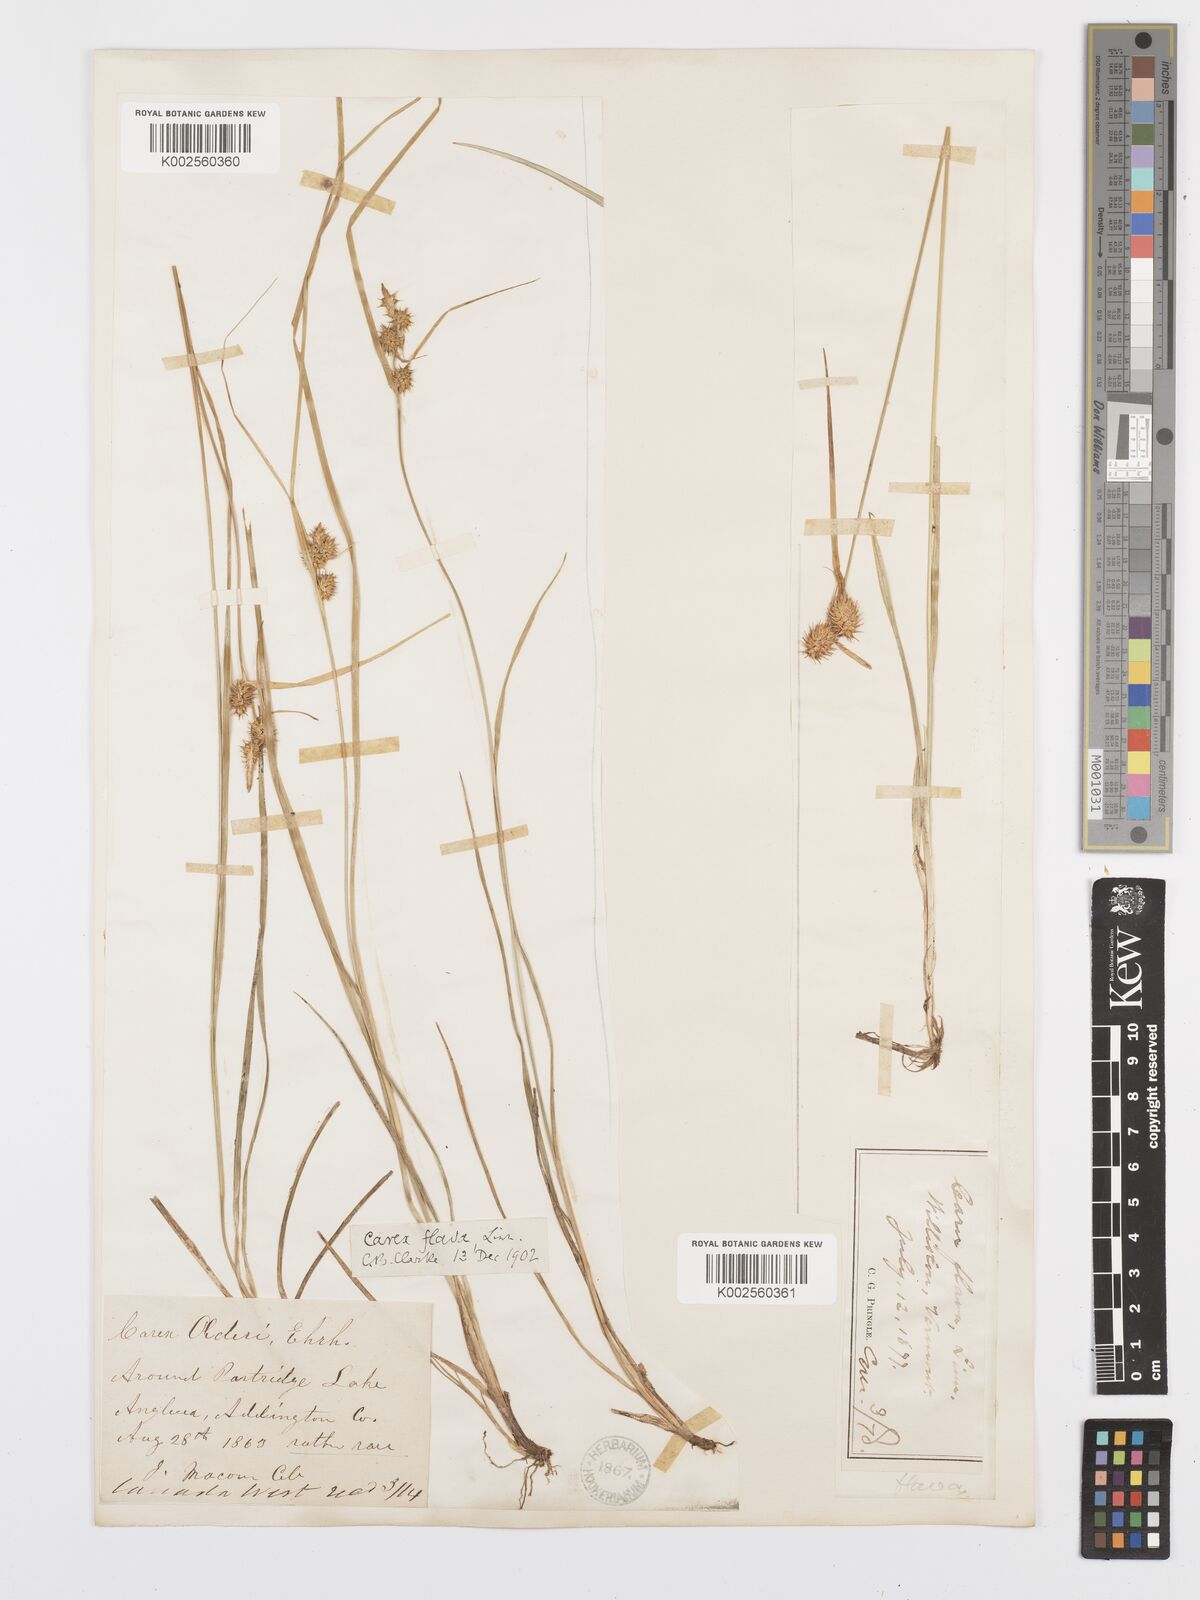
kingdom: Plantae
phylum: Tracheophyta
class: Liliopsida
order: Poales
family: Cyperaceae
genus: Carex
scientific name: Carex lepidocarpa
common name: Long-stalked yellow-sedge
